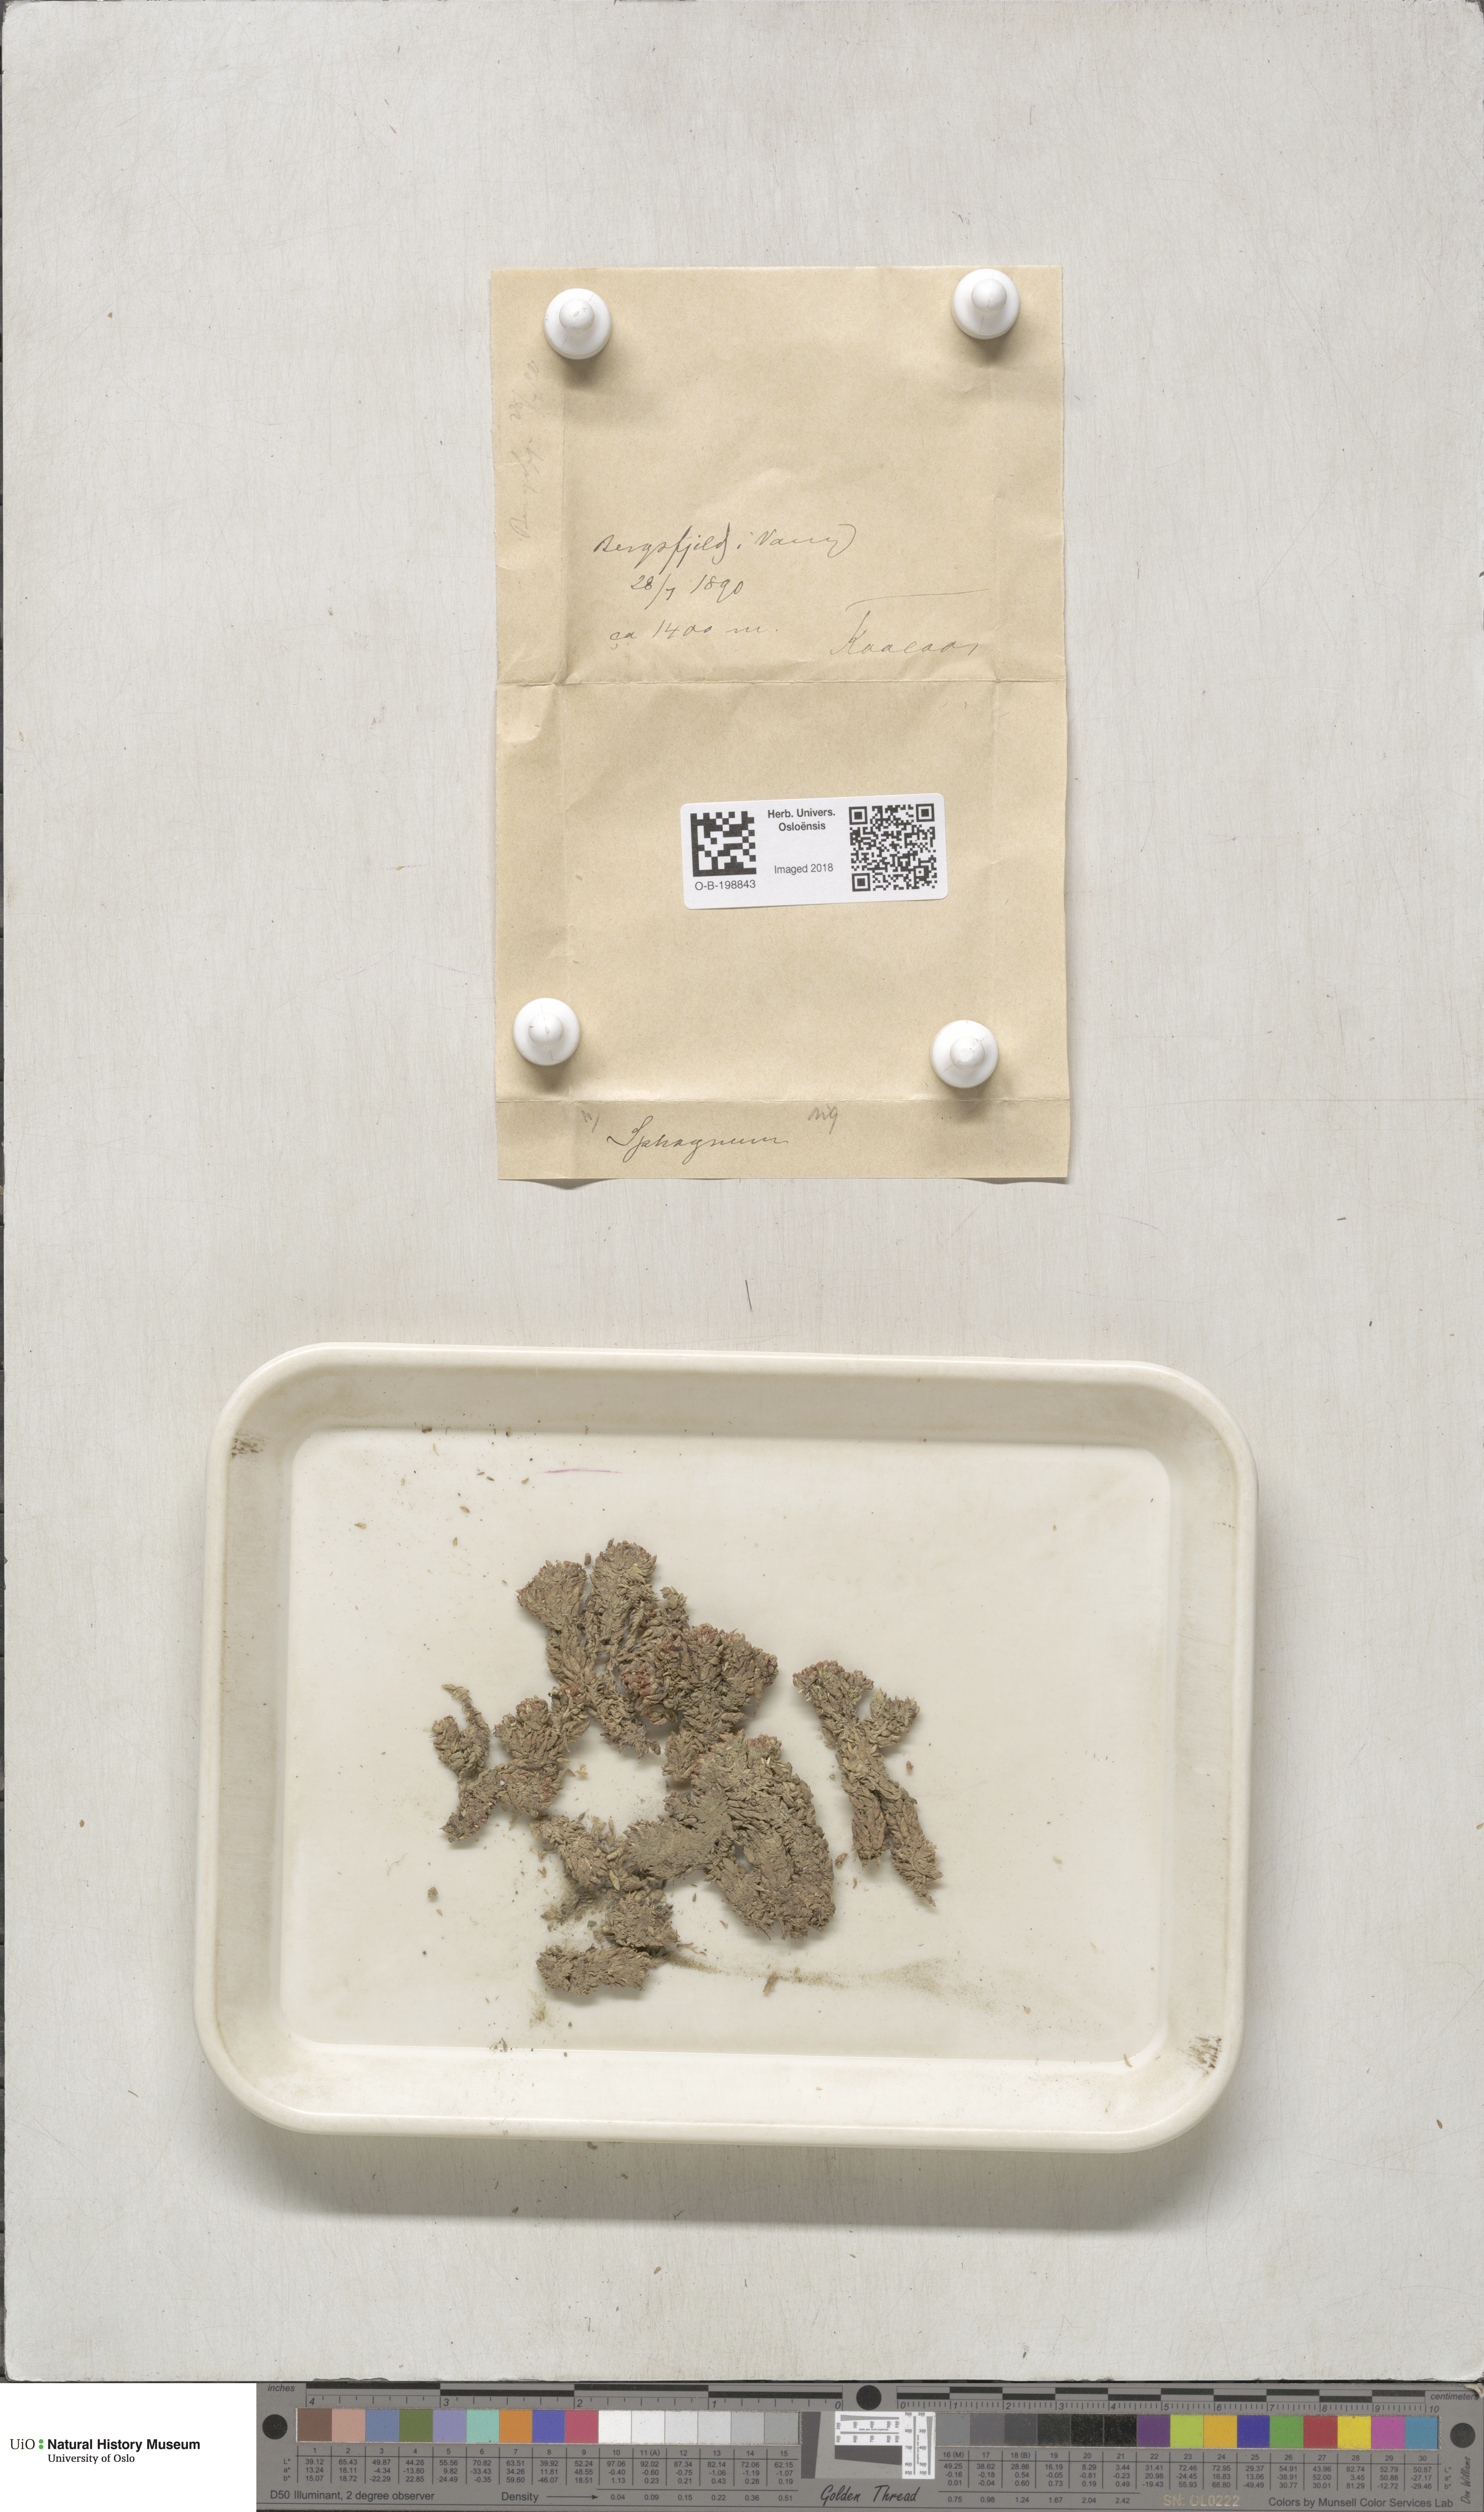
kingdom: Plantae
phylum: Bryophyta
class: Sphagnopsida
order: Sphagnales
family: Sphagnaceae
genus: Sphagnum
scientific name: Sphagnum compactum
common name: Compact peat moss
